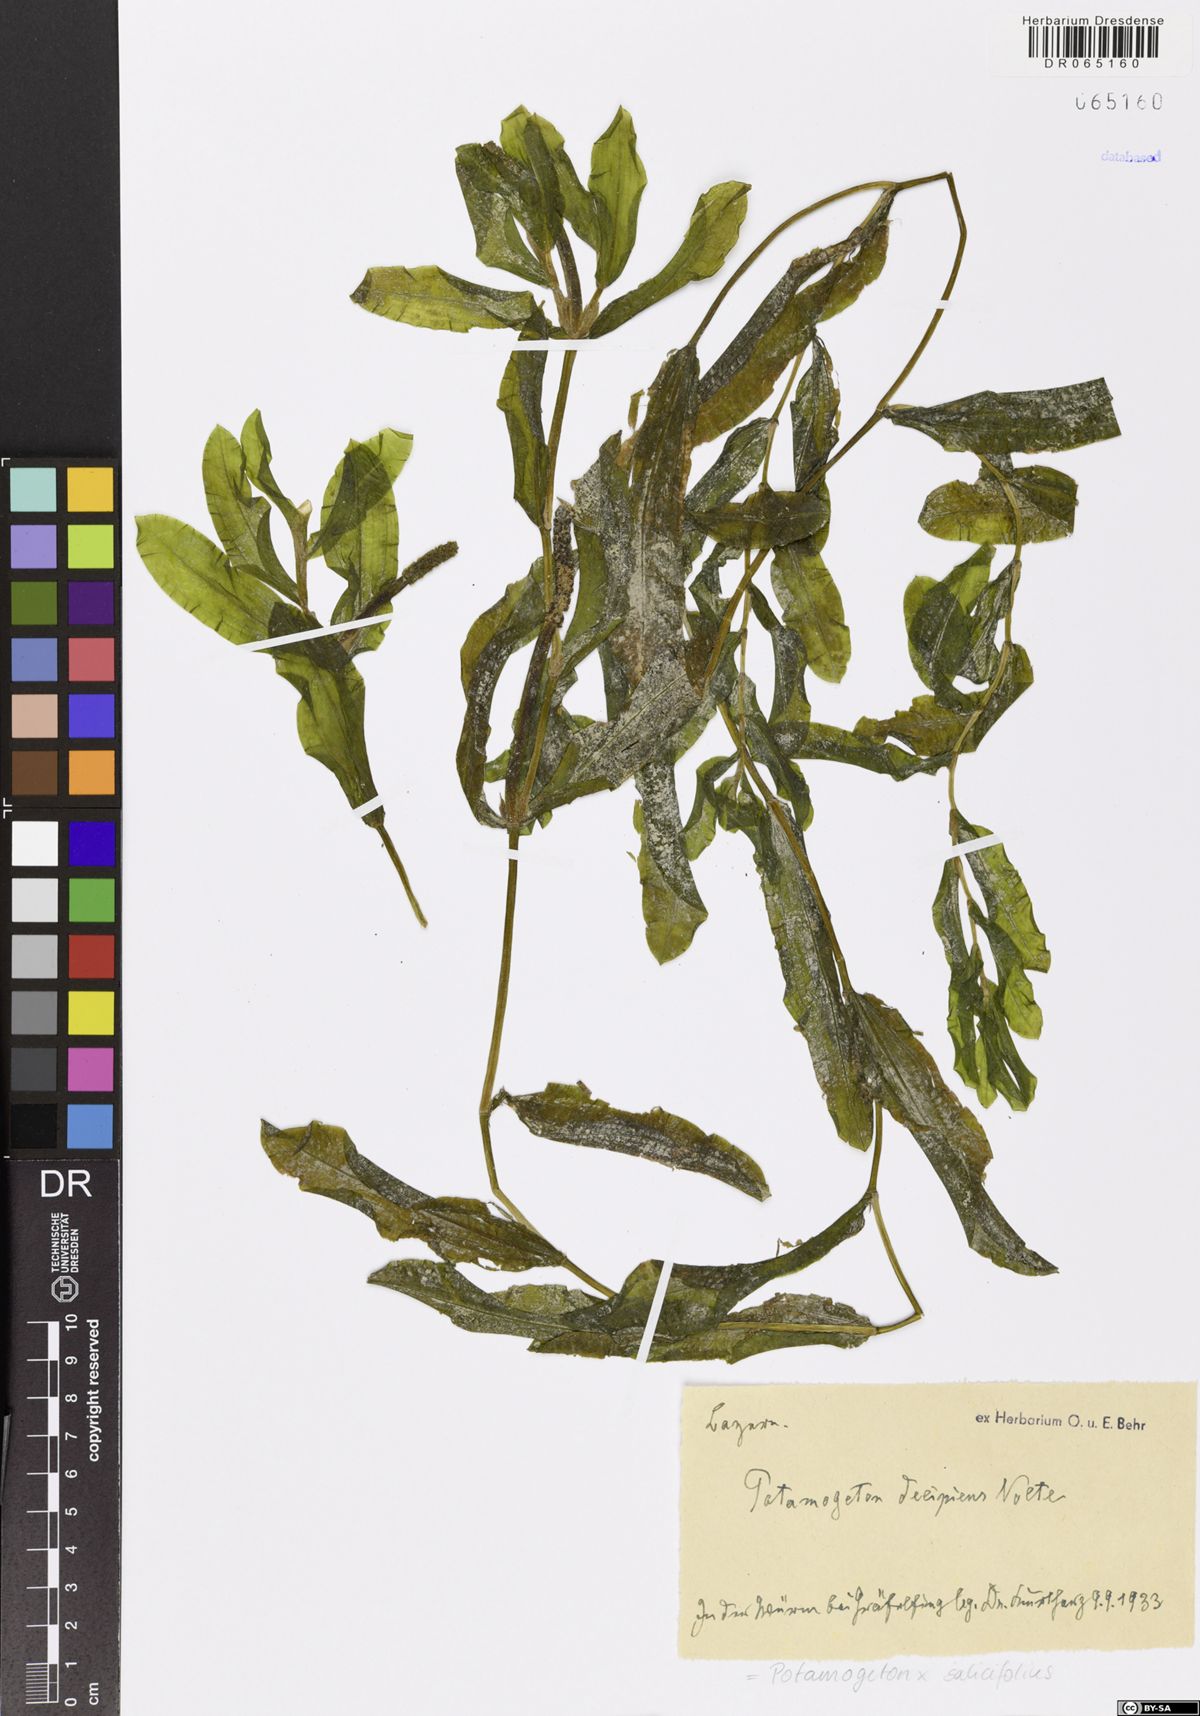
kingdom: Plantae
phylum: Tracheophyta
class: Liliopsida
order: Alismatales
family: Potamogetonaceae
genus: Potamogeton
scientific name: Potamogeton salicifolius
